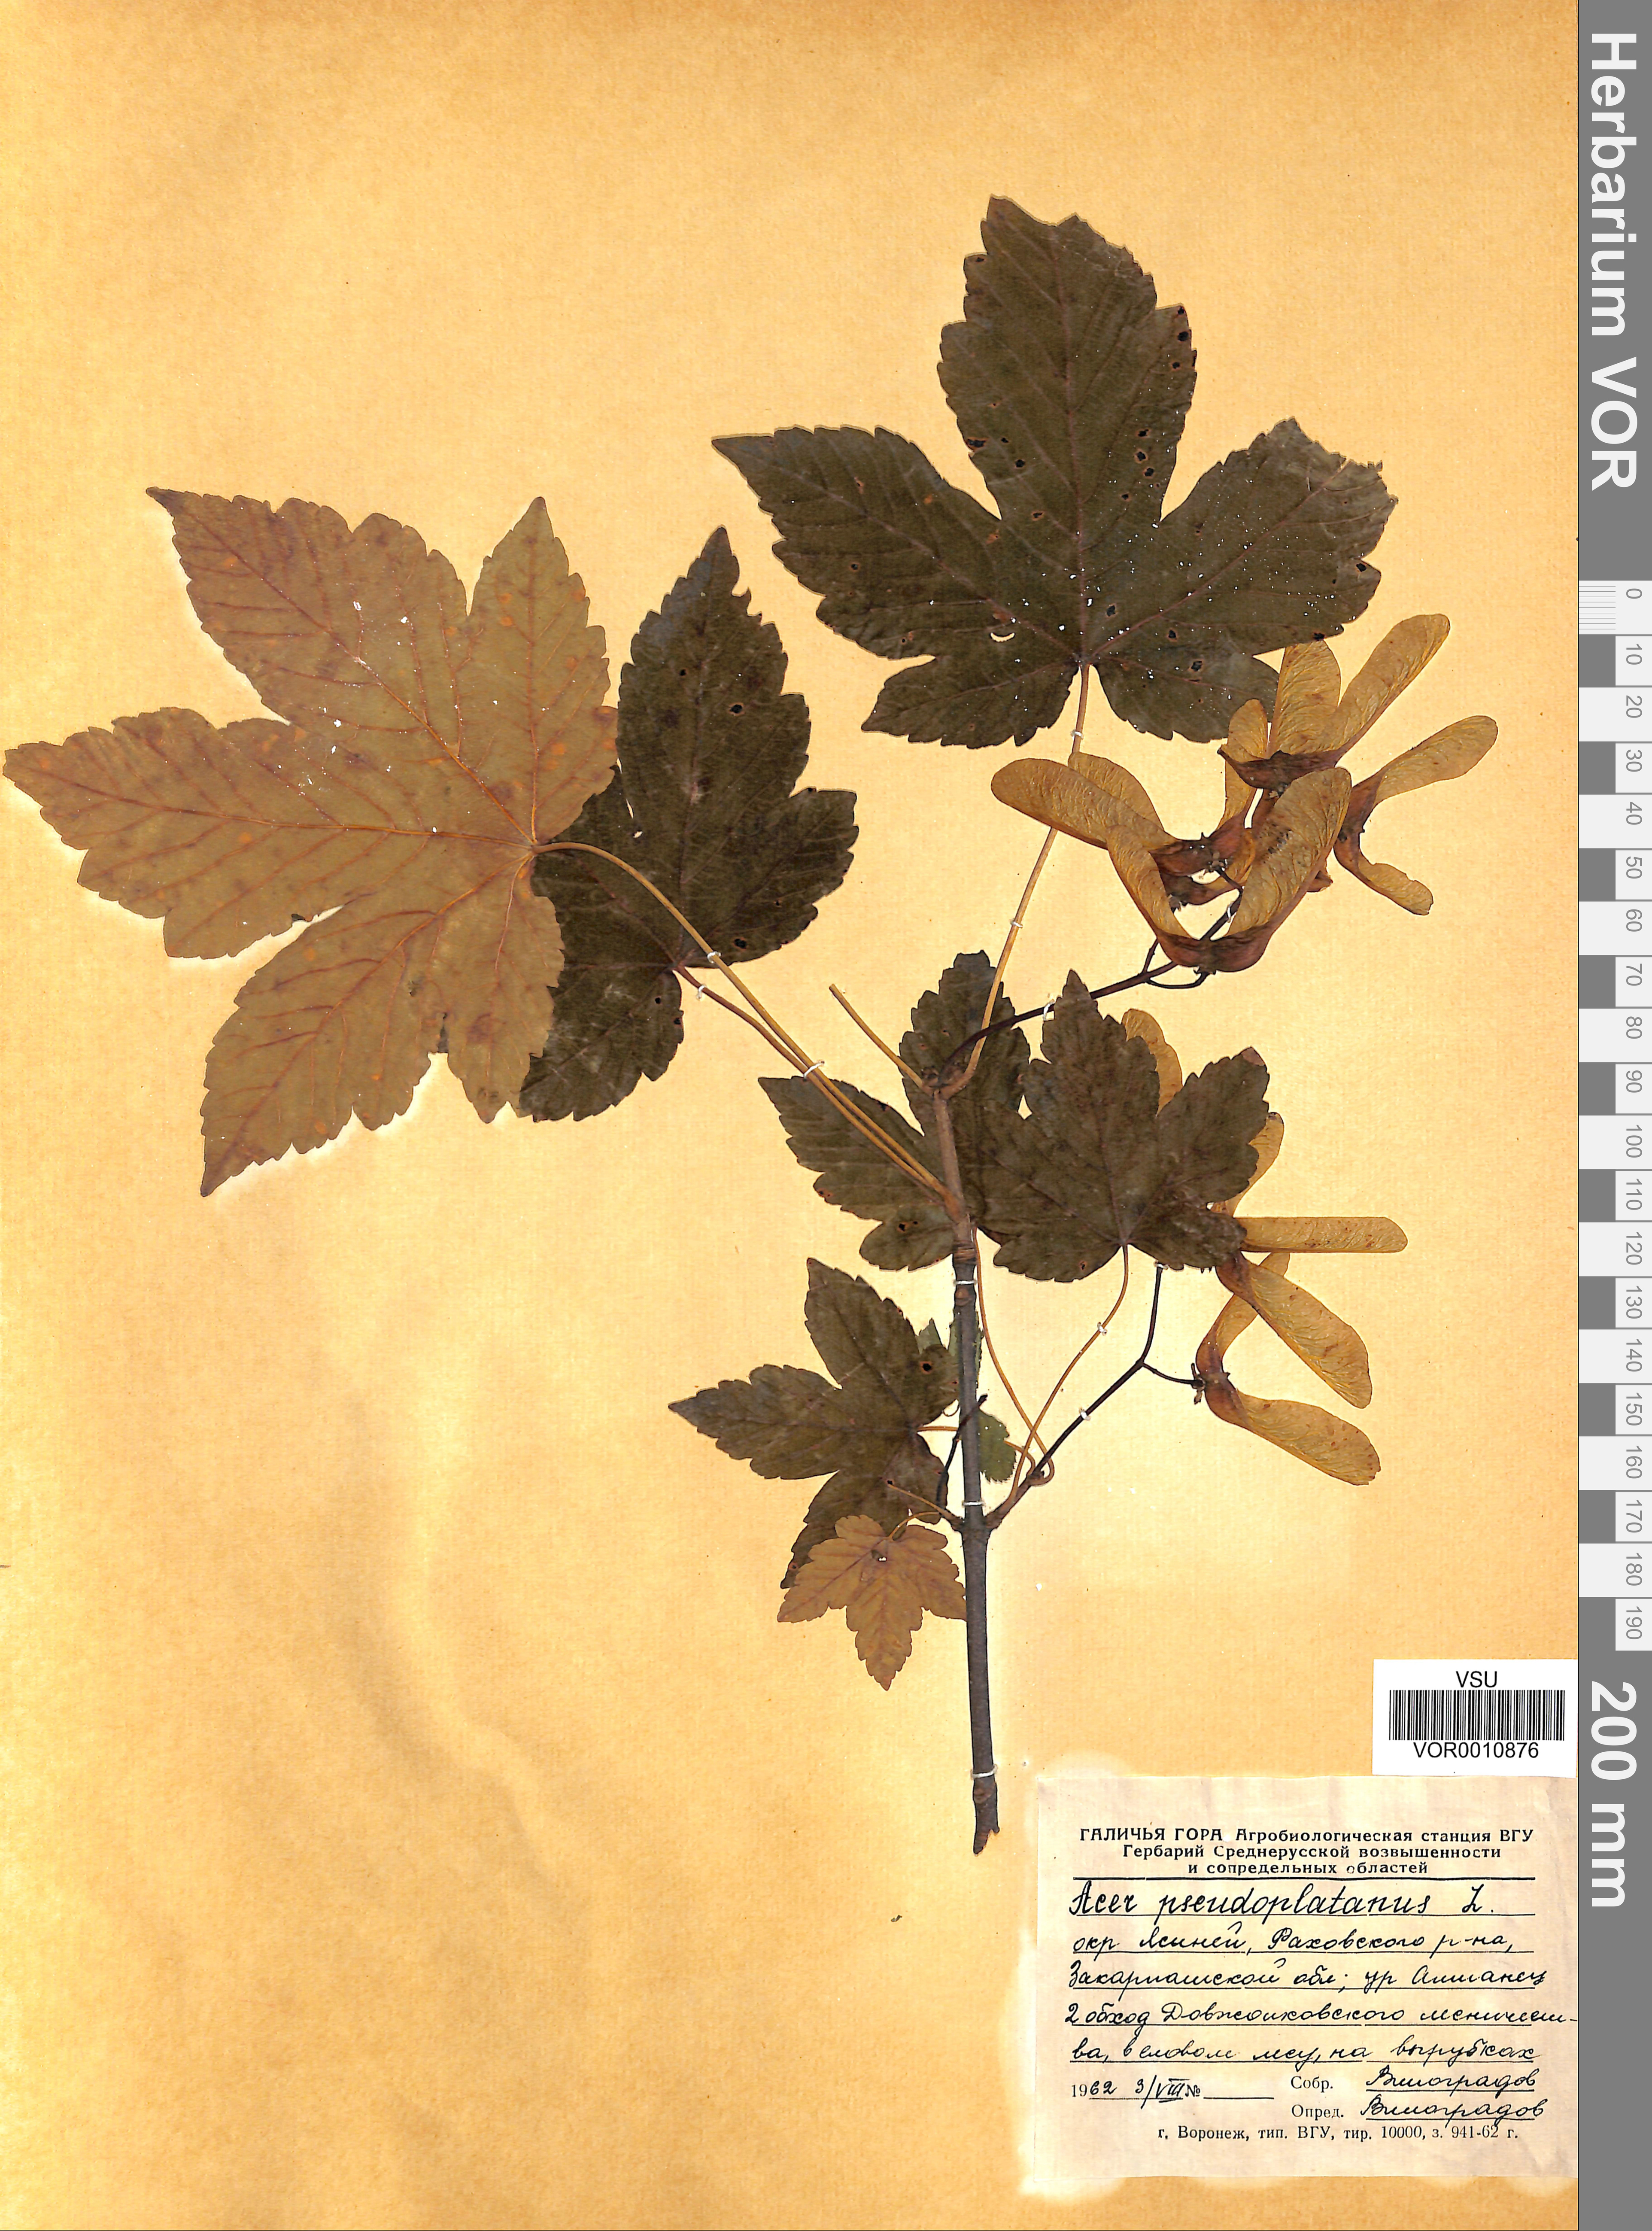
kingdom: Plantae
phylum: Tracheophyta
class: Magnoliopsida
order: Sapindales
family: Sapindaceae
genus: Acer
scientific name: Acer pseudoplatanus
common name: Sycamore
